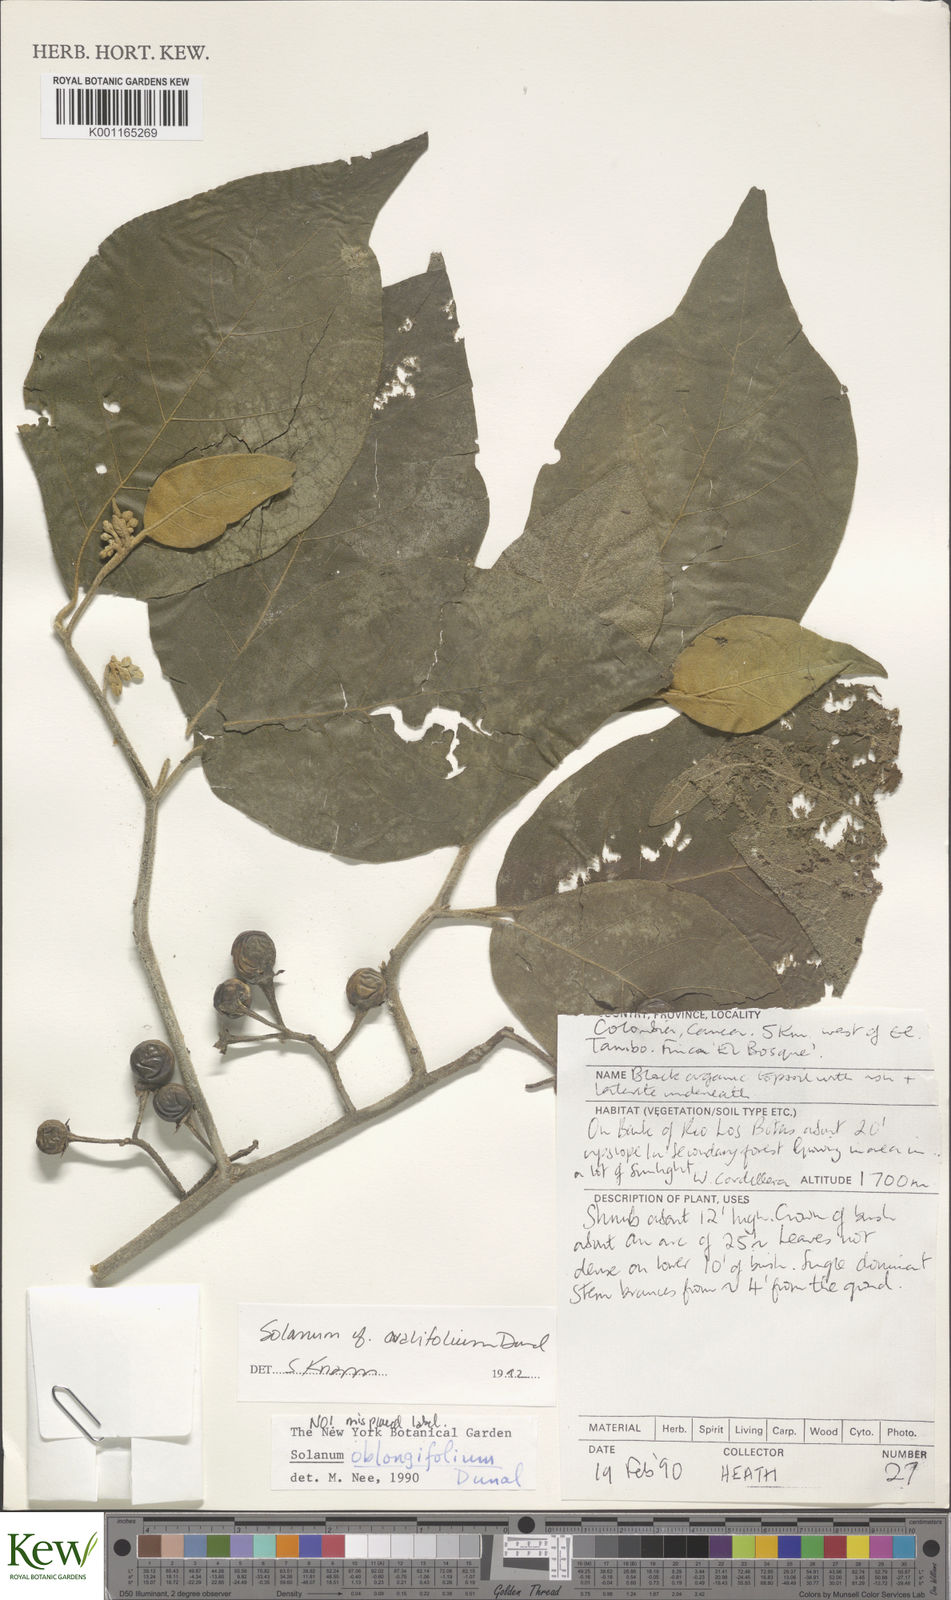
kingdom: Plantae
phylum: Tracheophyta
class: Magnoliopsida
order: Solanales
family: Solanaceae
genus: Solanum
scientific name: Solanum ovalifolium
